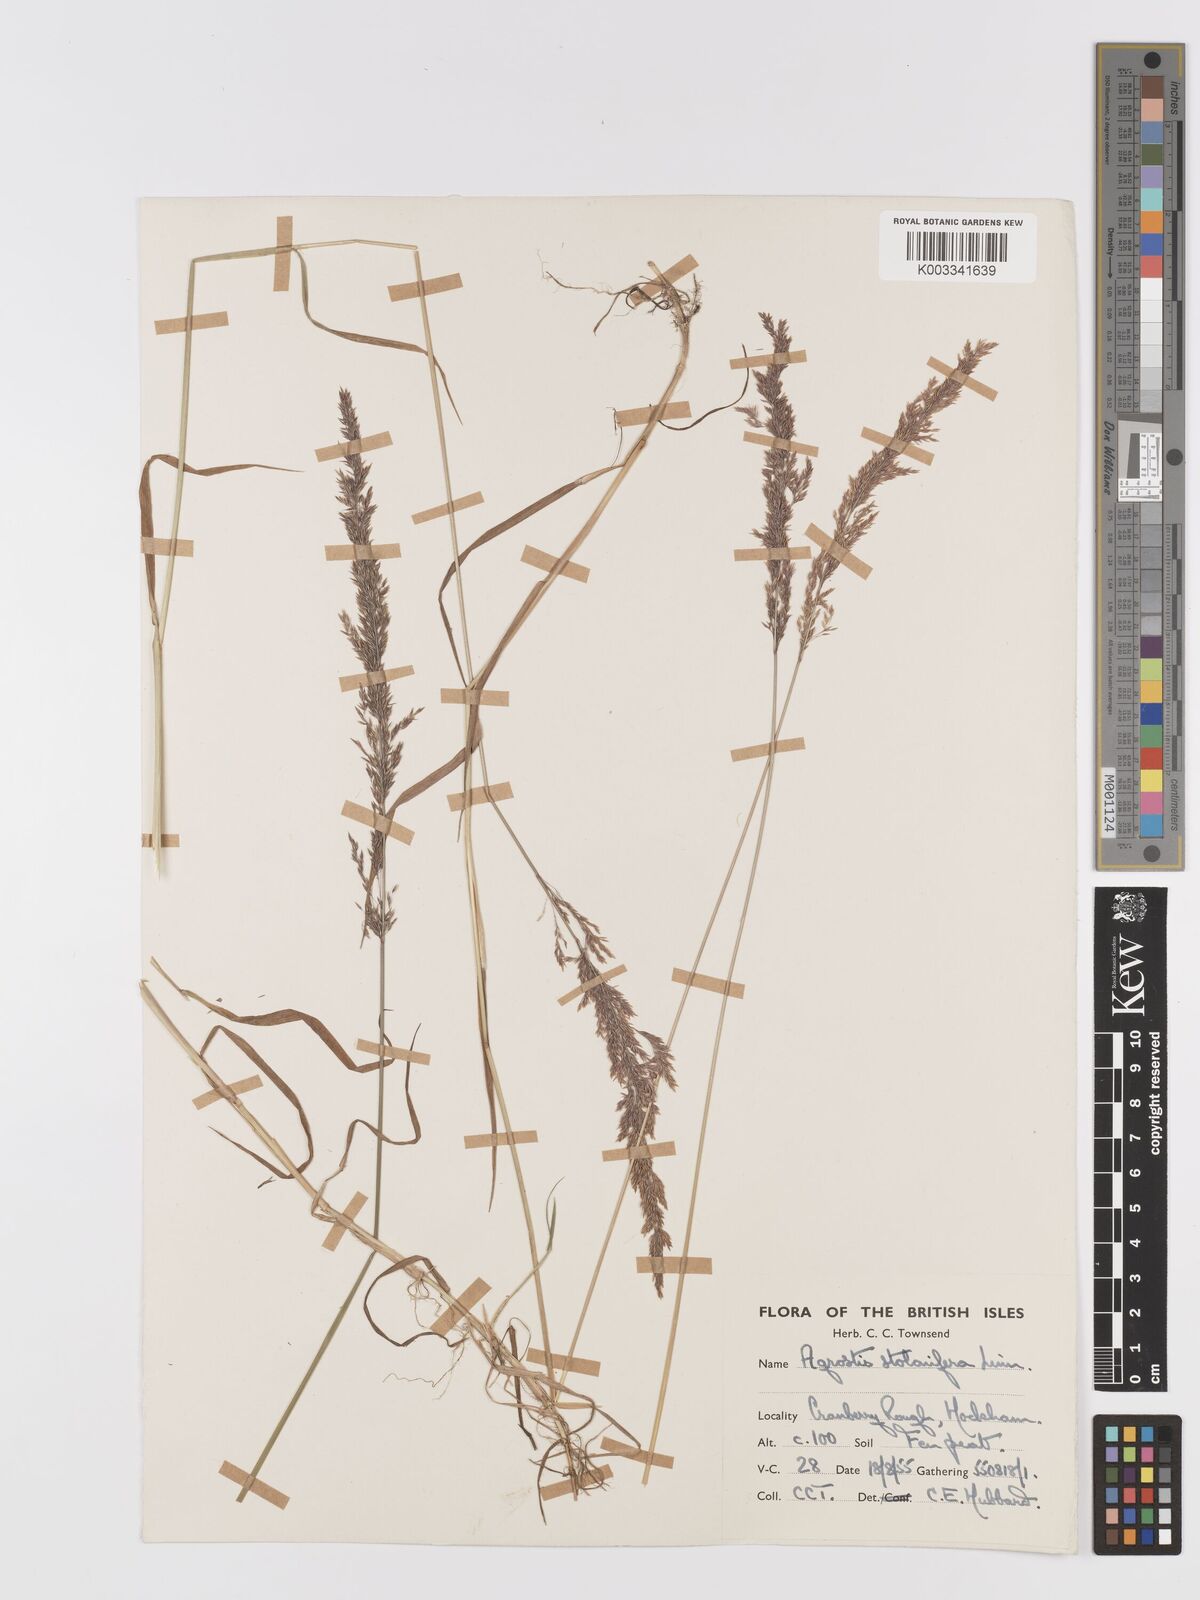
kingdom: Plantae
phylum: Tracheophyta
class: Liliopsida
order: Poales
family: Poaceae
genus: Agrostis
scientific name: Agrostis stolonifera
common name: Creeping bentgrass
